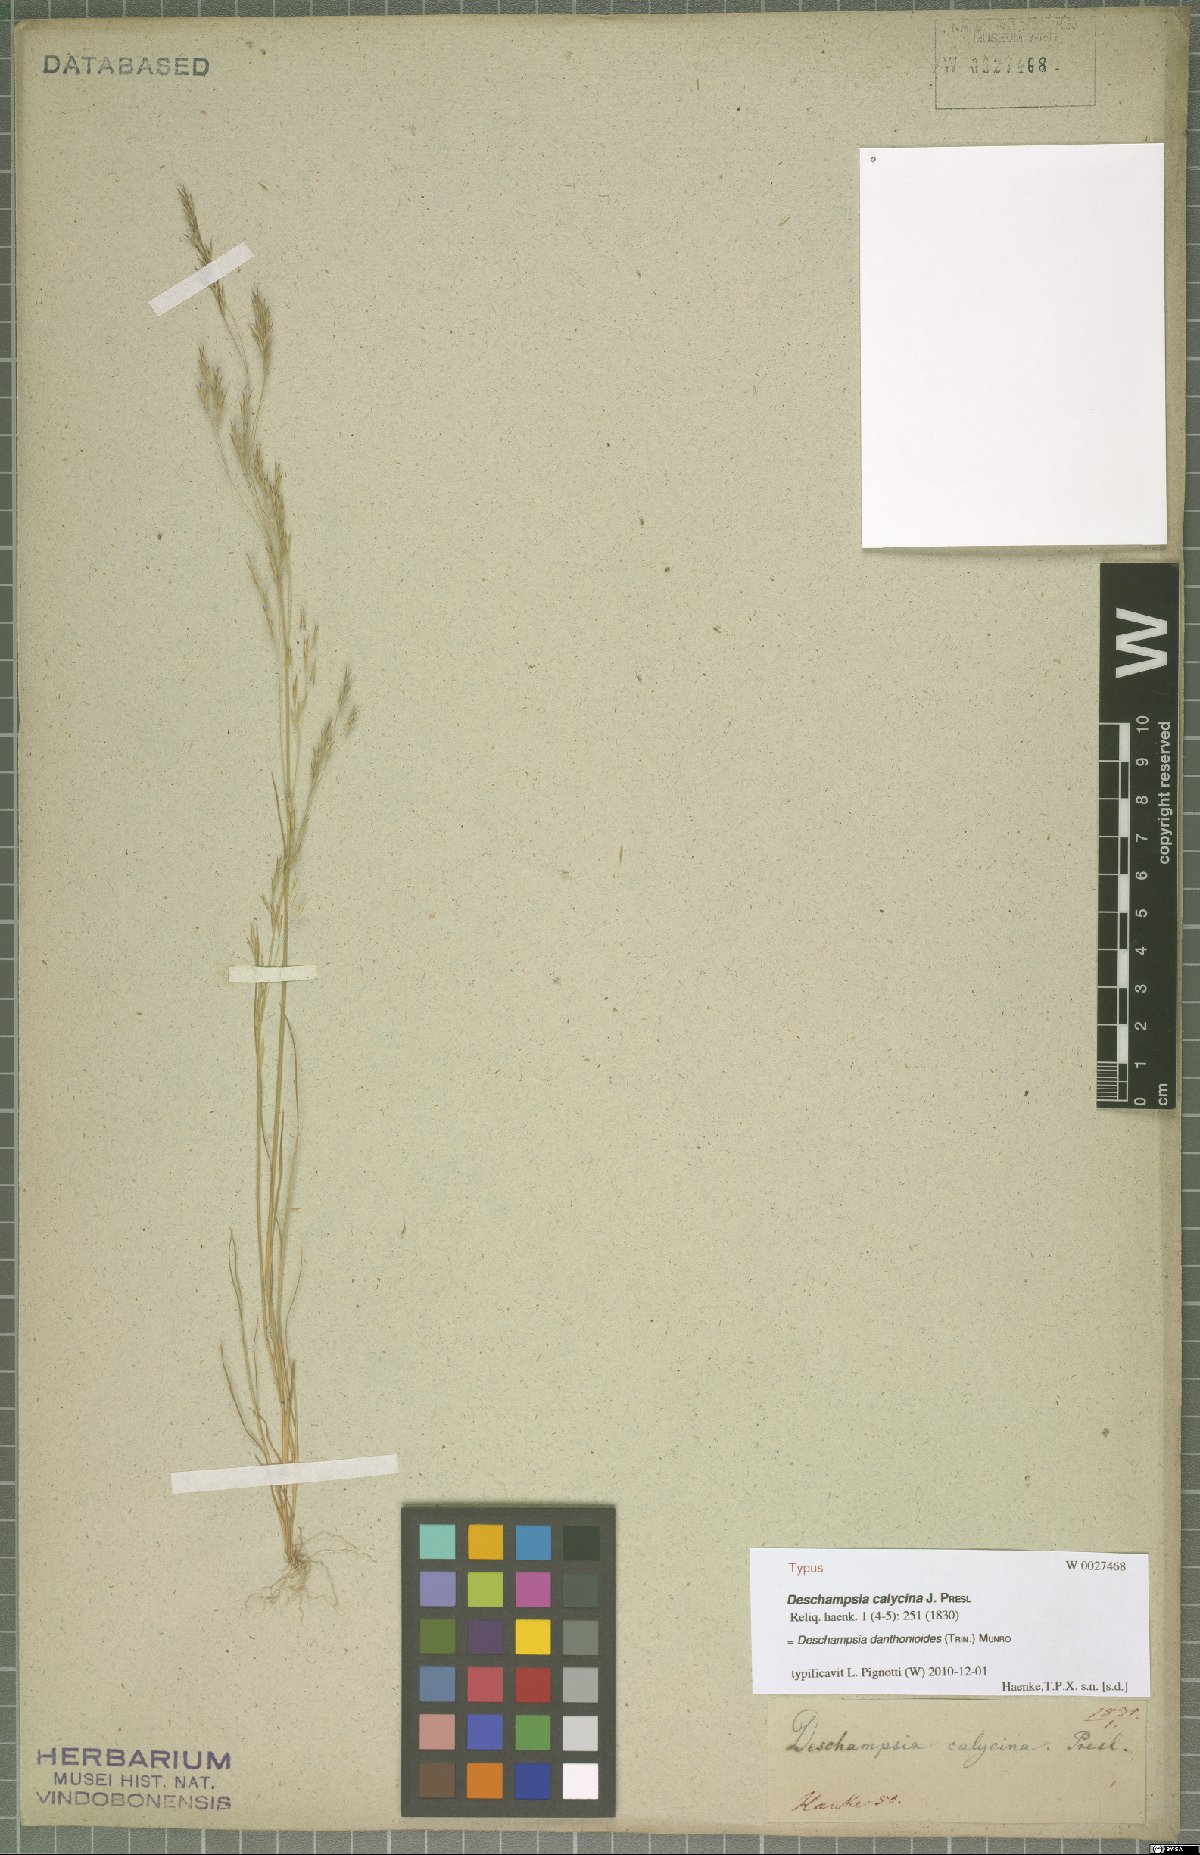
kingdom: Plantae
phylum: Tracheophyta
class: Liliopsida
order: Poales
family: Poaceae
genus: Deschampsia
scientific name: Deschampsia danthonioides
